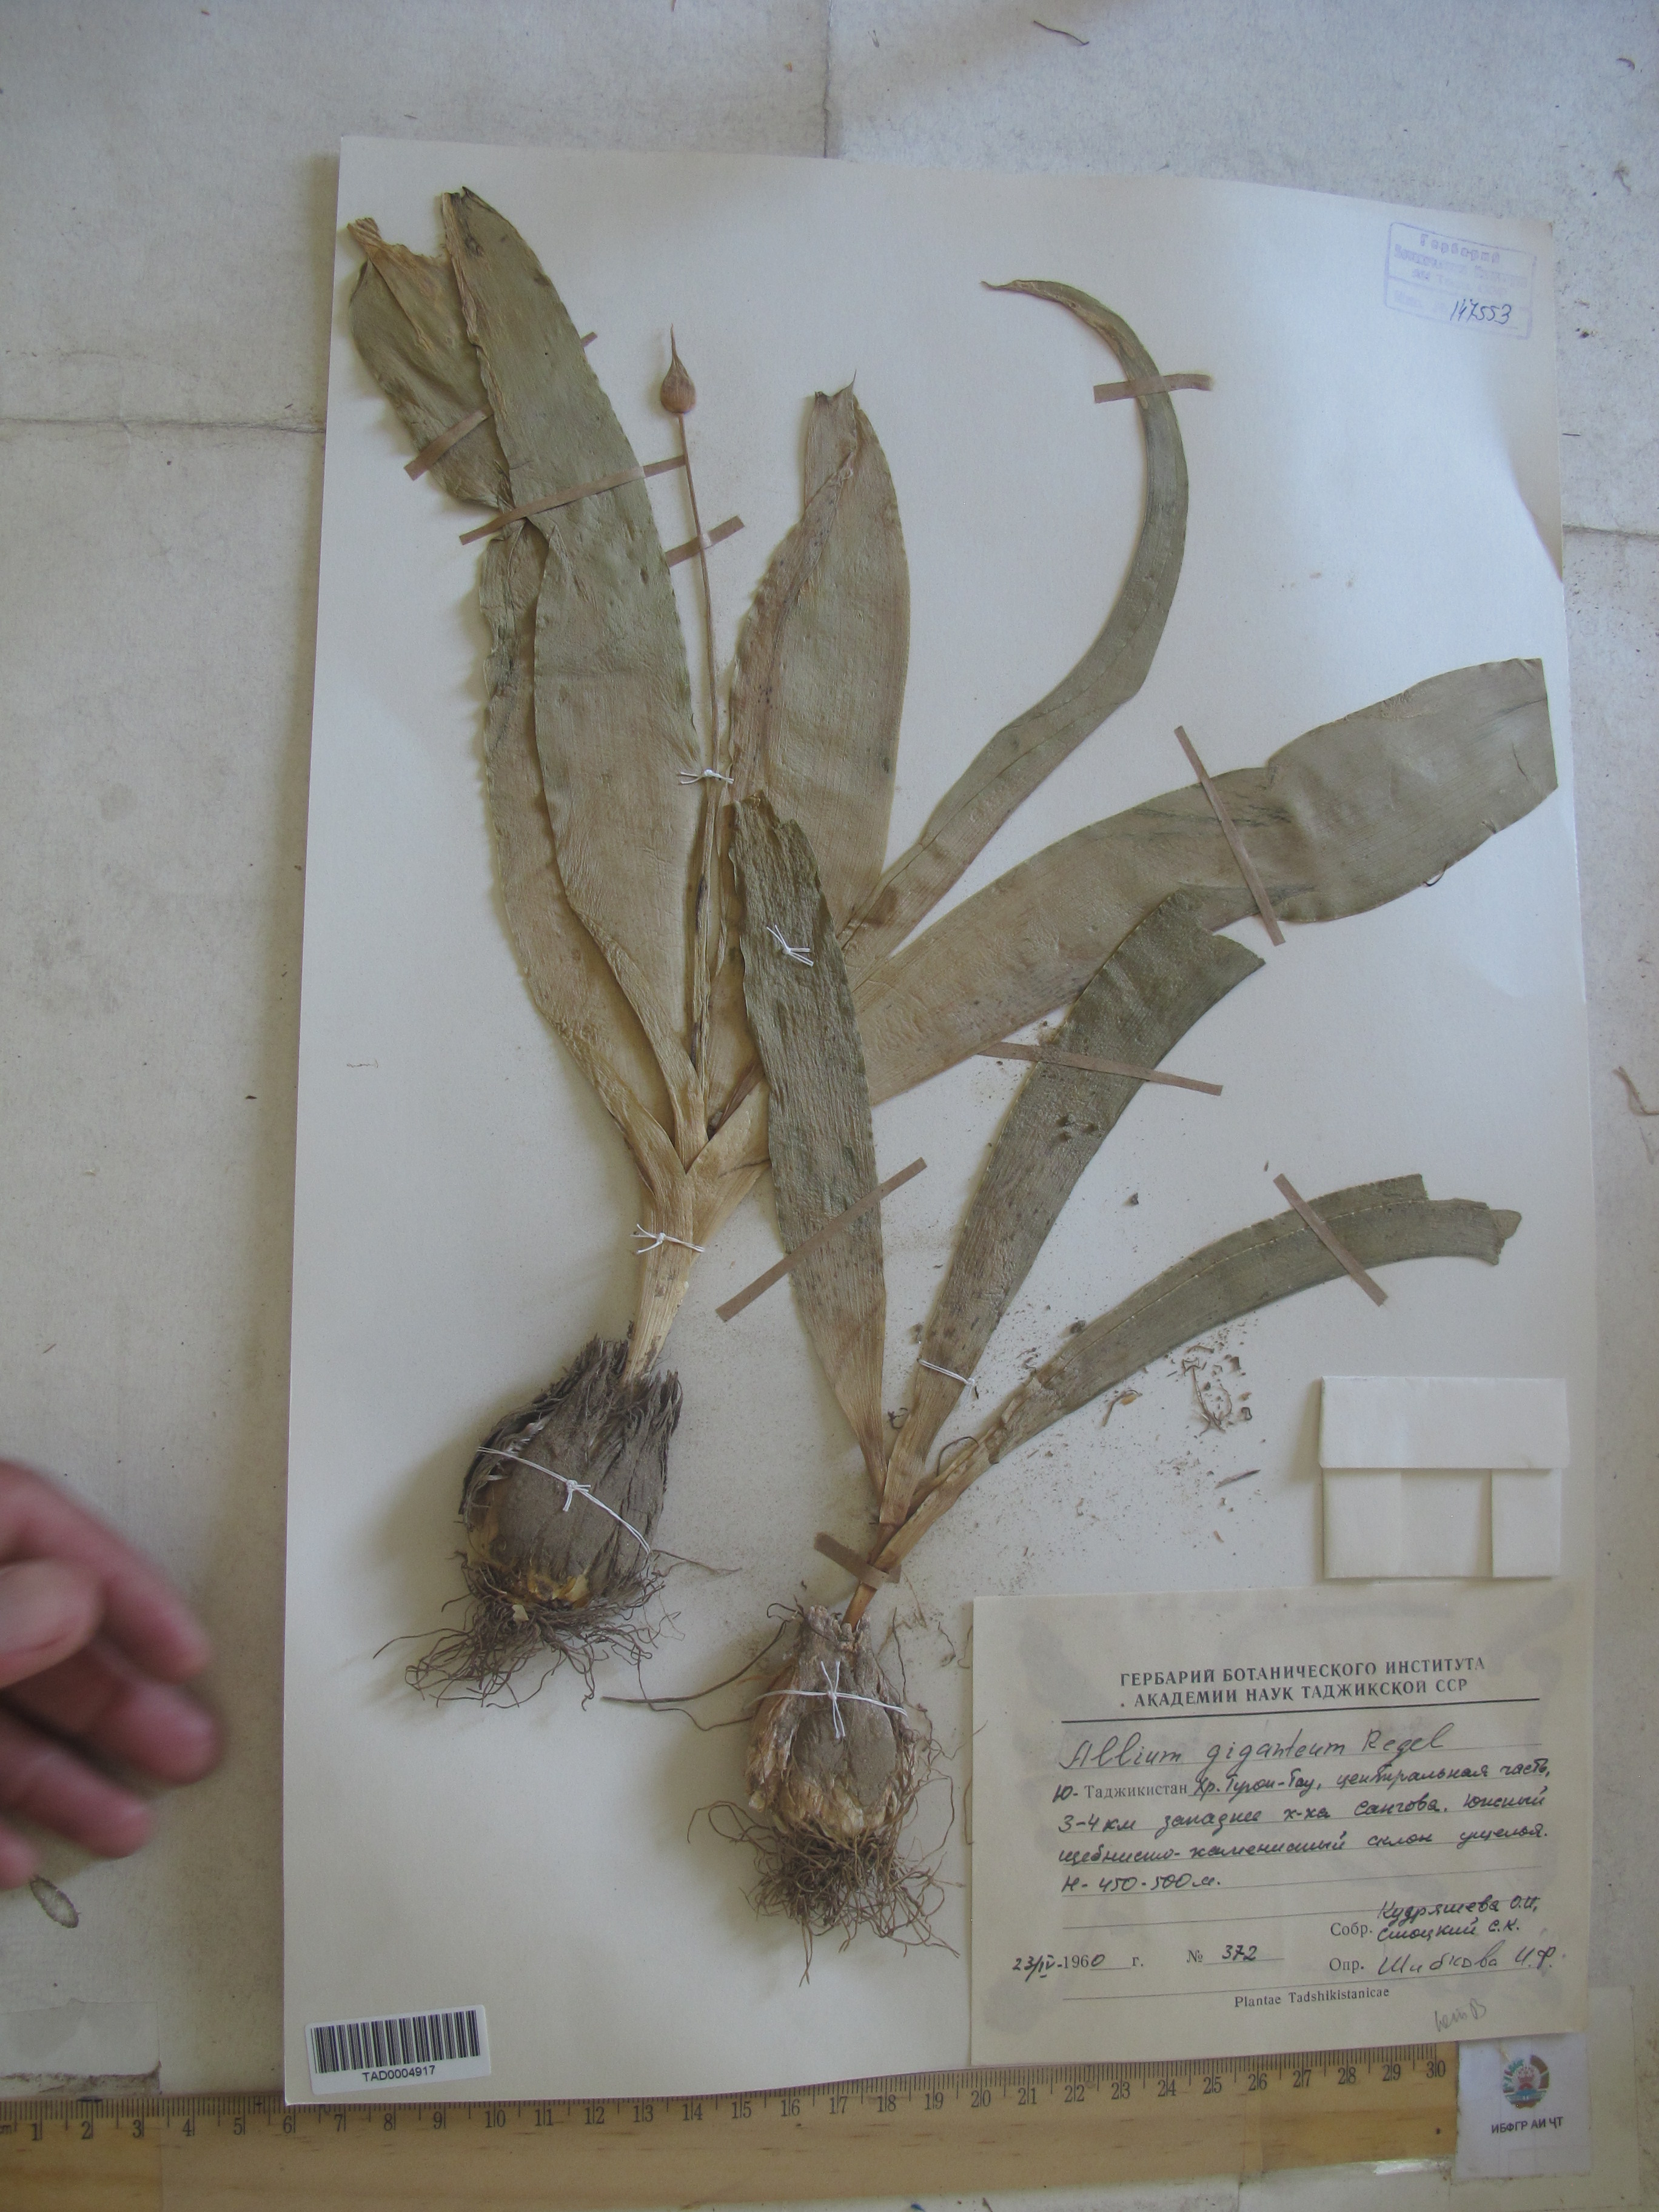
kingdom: Plantae
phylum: Tracheophyta
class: Liliopsida
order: Asparagales
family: Amaryllidaceae
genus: Allium
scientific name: Allium giganteum
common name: Giant onion
